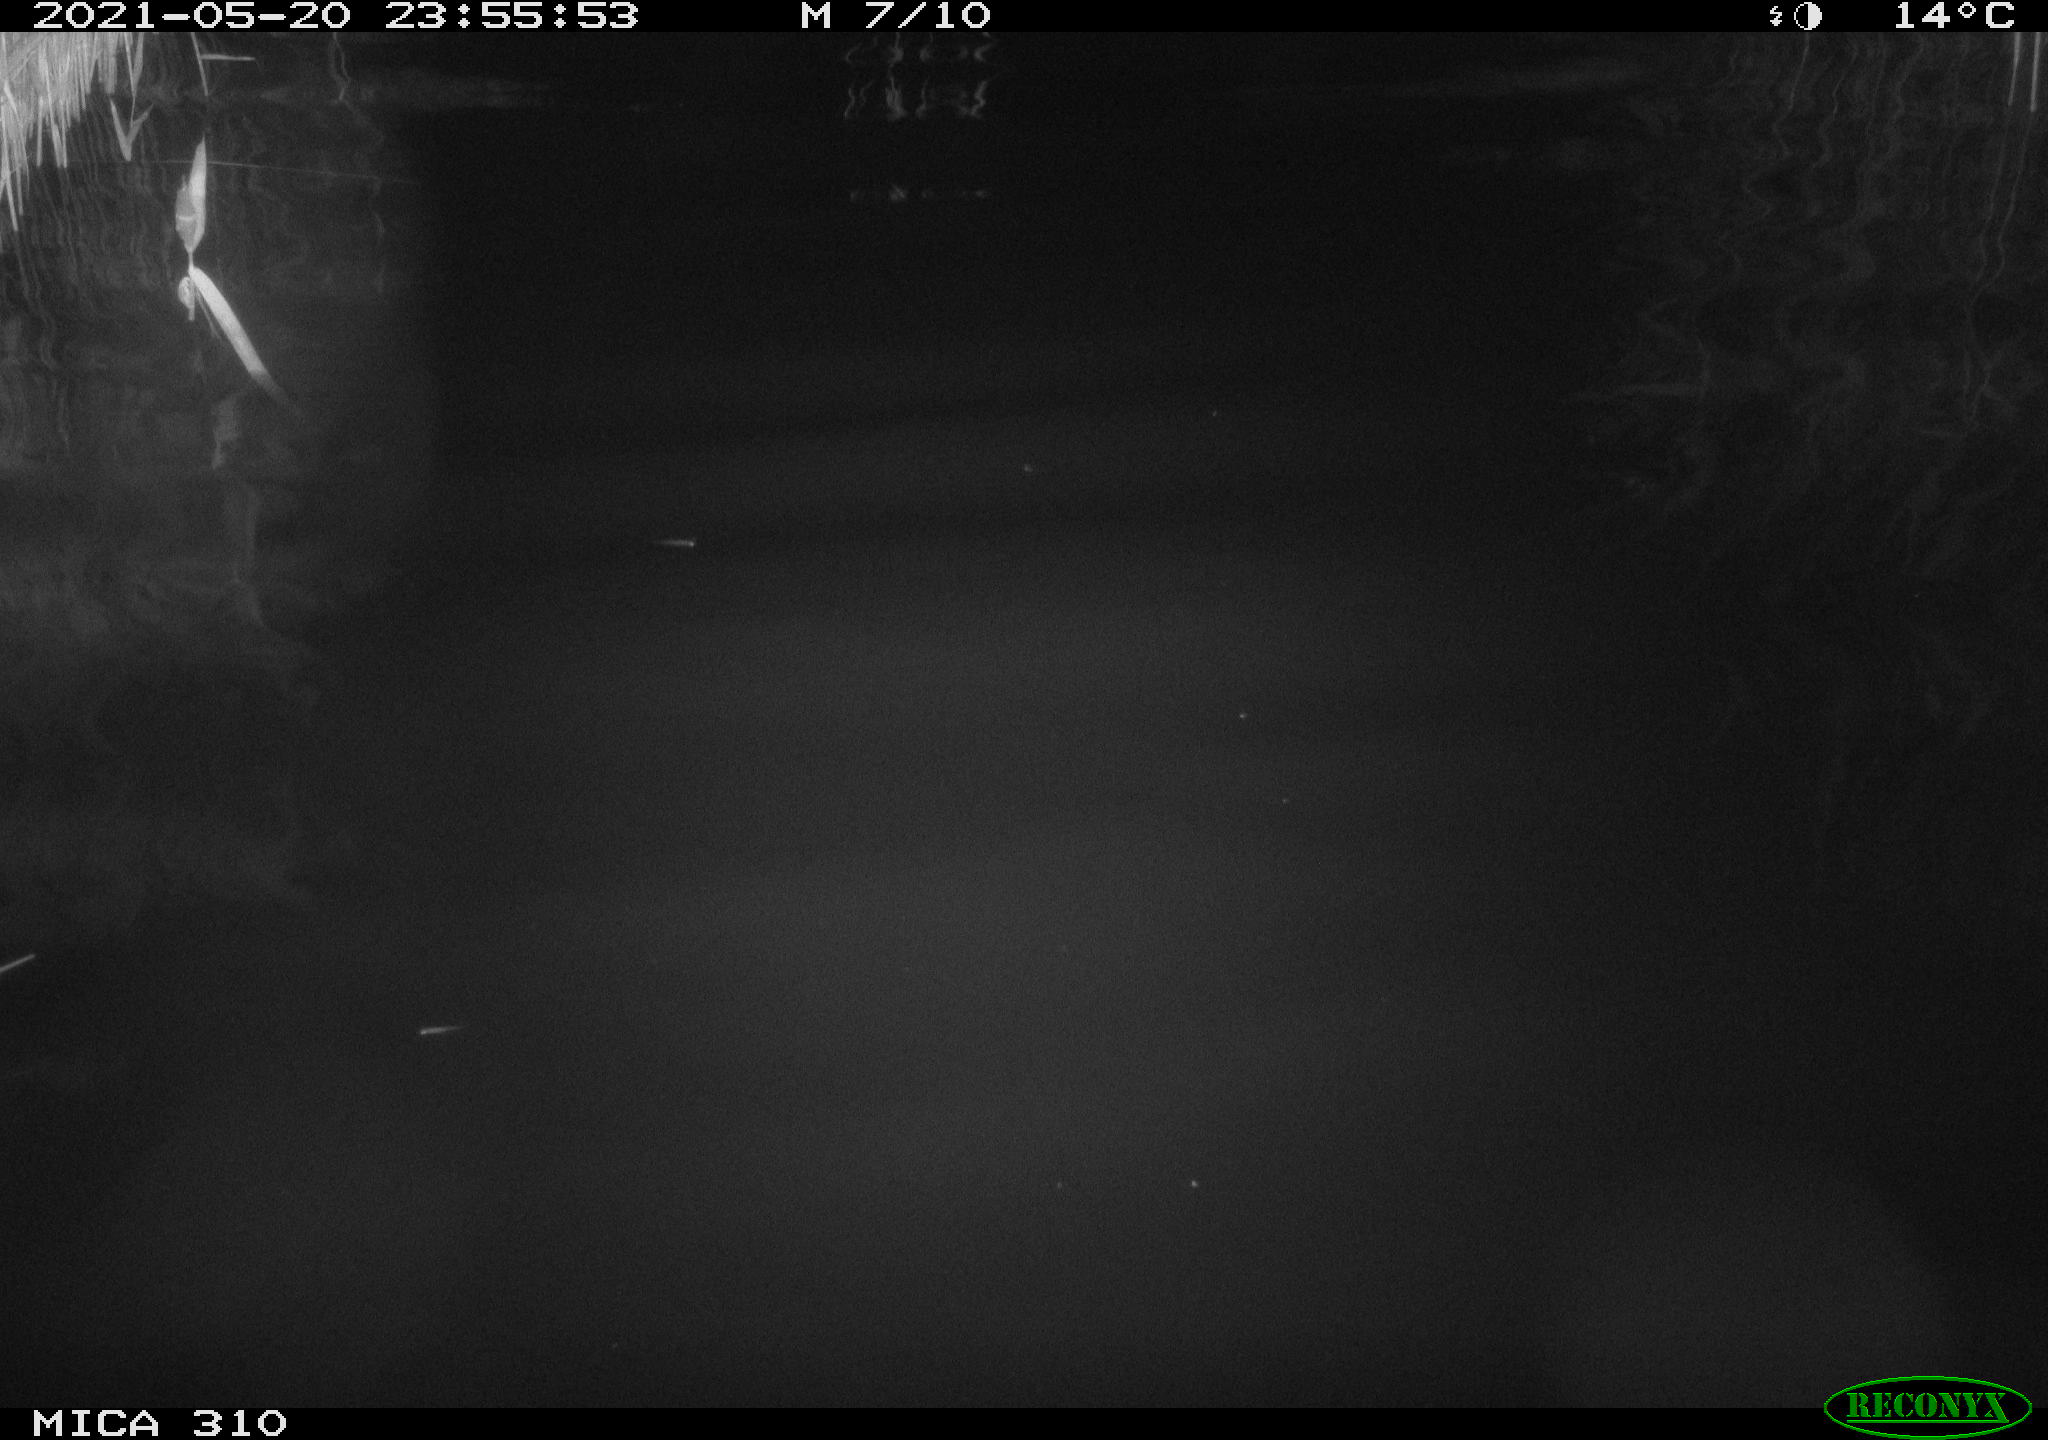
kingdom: Animalia
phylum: Chordata
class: Aves
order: Anseriformes
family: Anatidae
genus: Anas
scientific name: Anas platyrhynchos
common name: Mallard
